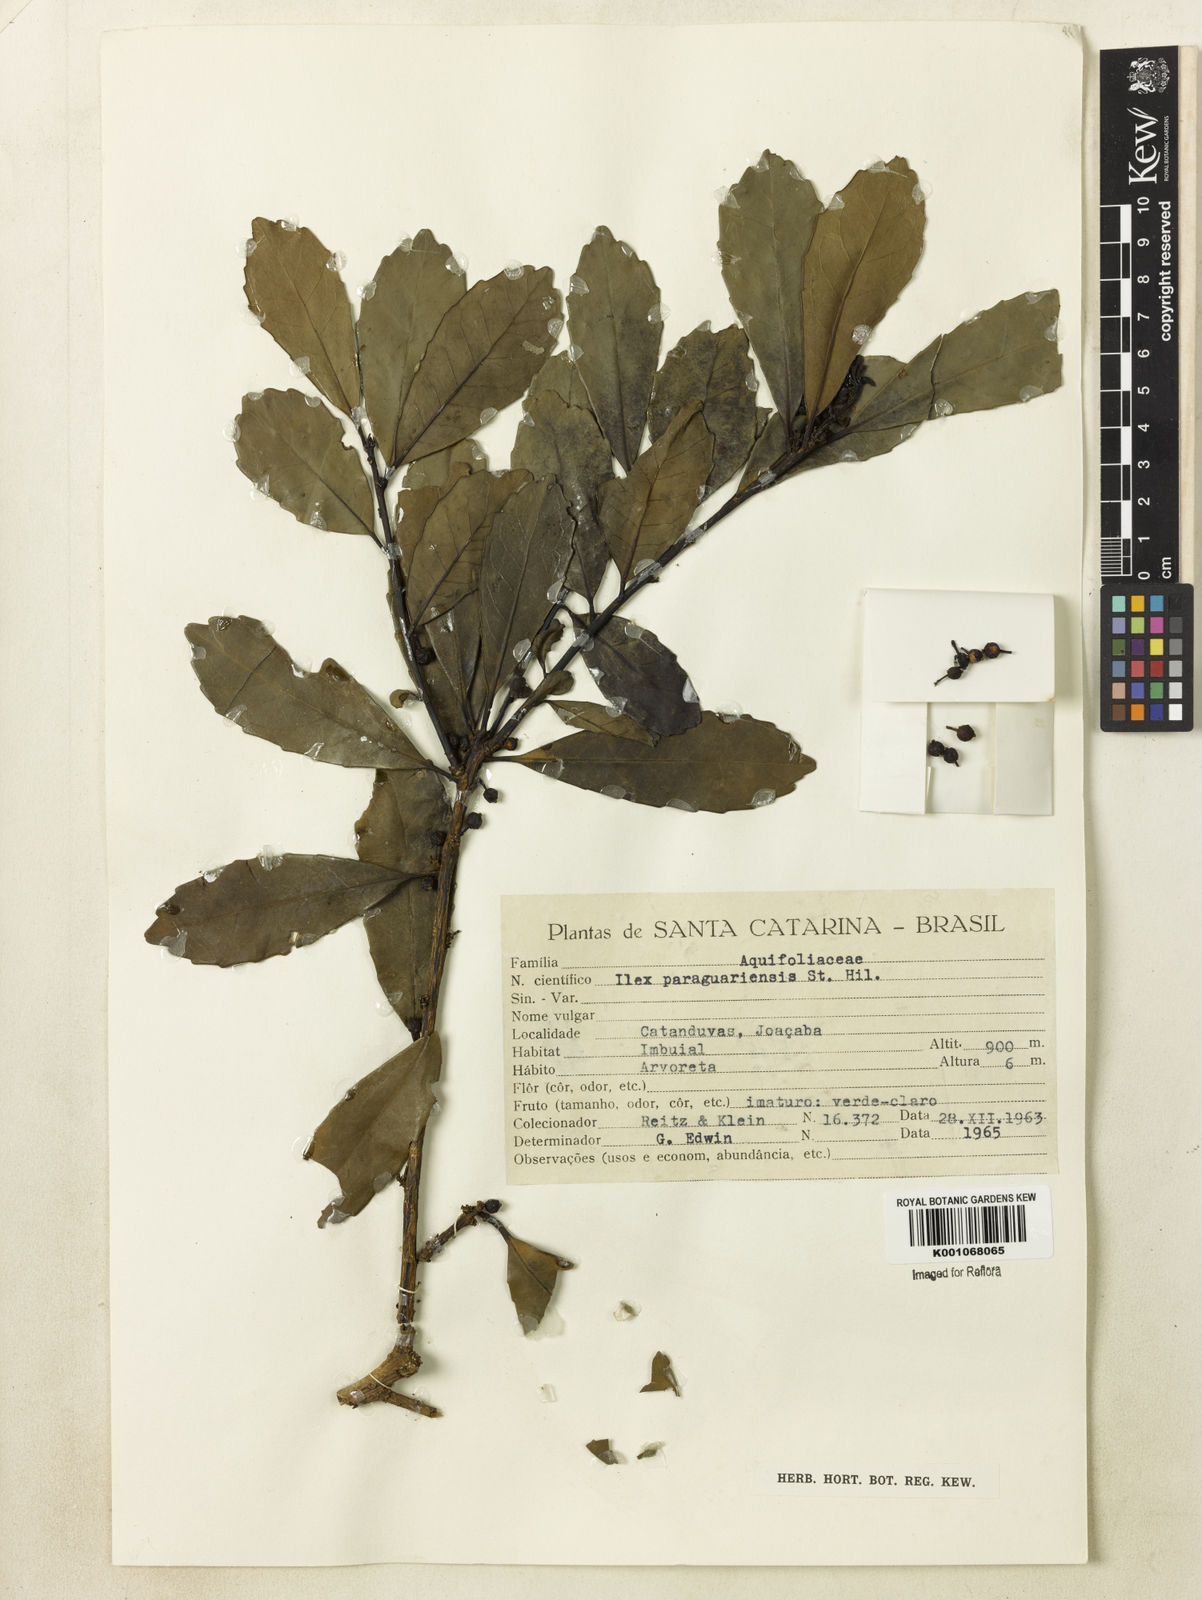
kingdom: Plantae
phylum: Tracheophyta
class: Magnoliopsida
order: Aquifoliales
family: Aquifoliaceae
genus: Ilex
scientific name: Ilex paraguariensis
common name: Paraguay tea
